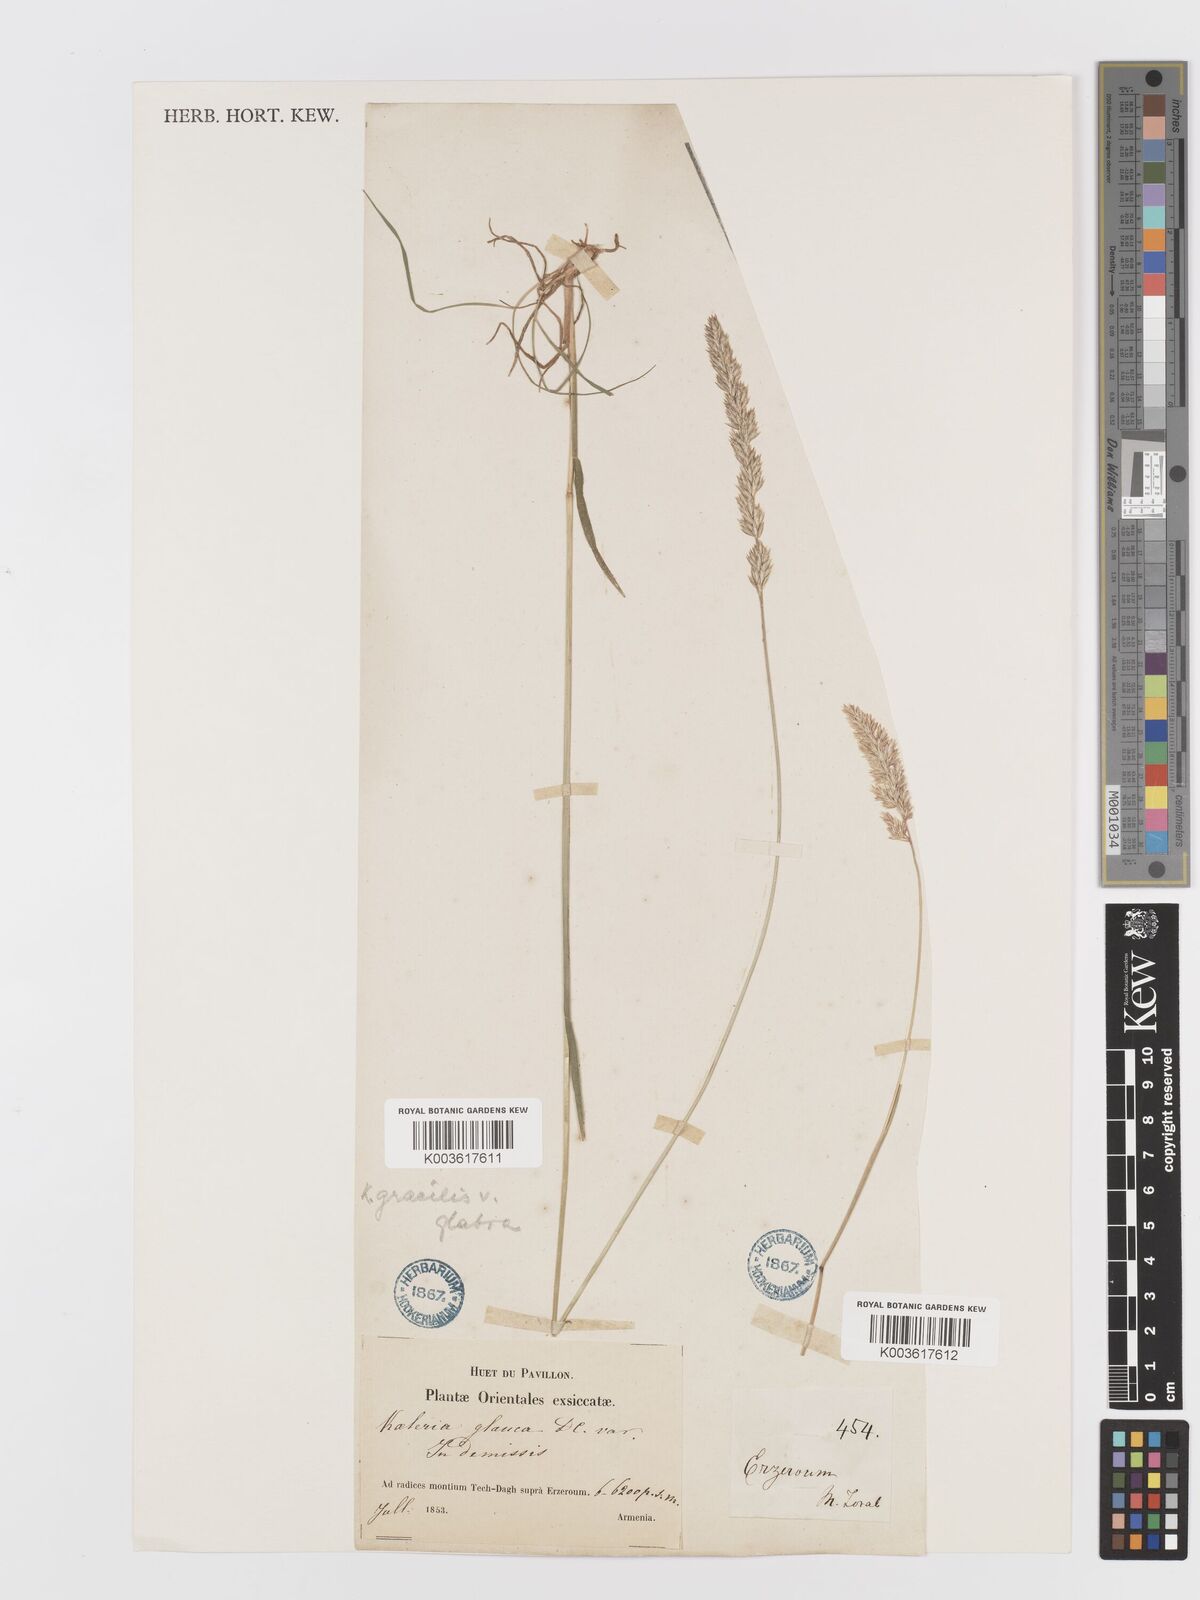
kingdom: Plantae
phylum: Tracheophyta
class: Liliopsida
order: Poales
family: Poaceae
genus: Koeleria
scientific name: Koeleria macrantha
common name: Crested hair-grass
